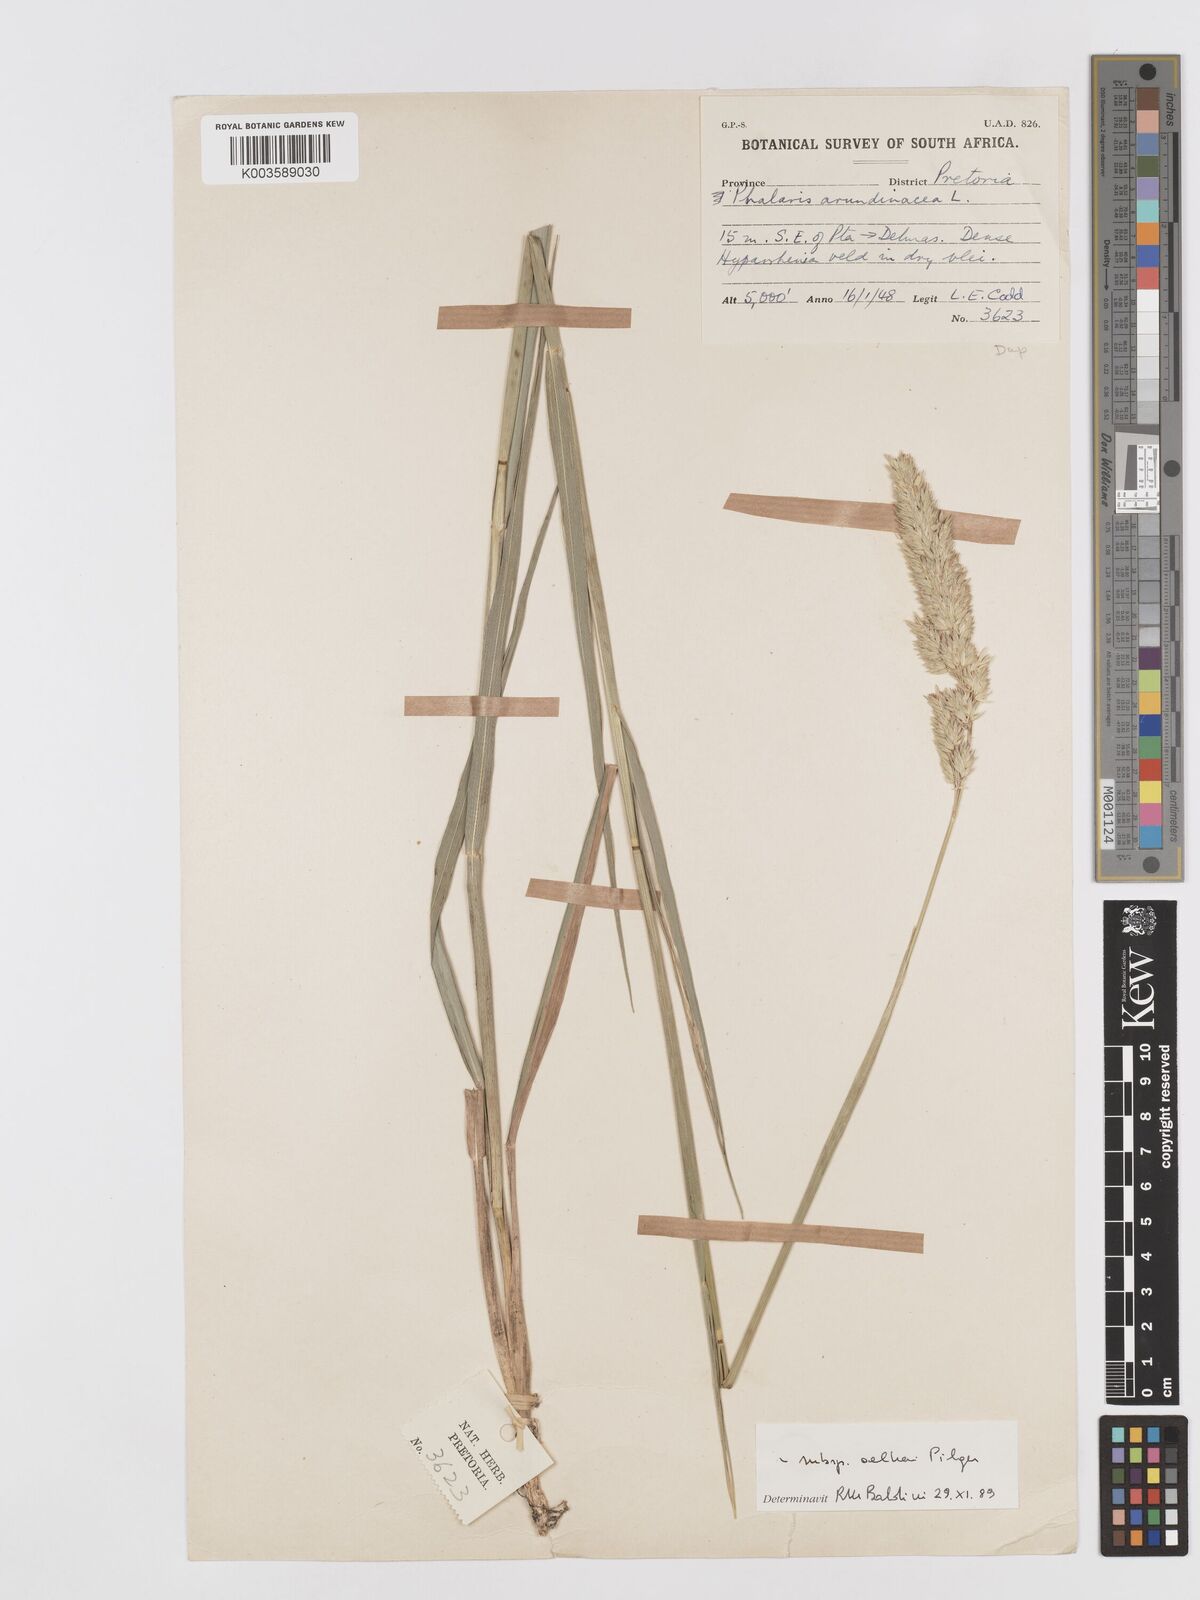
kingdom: Plantae
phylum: Tracheophyta
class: Liliopsida
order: Poales
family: Poaceae
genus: Phalaris
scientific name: Phalaris arundinacea
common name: Reed canary-grass
